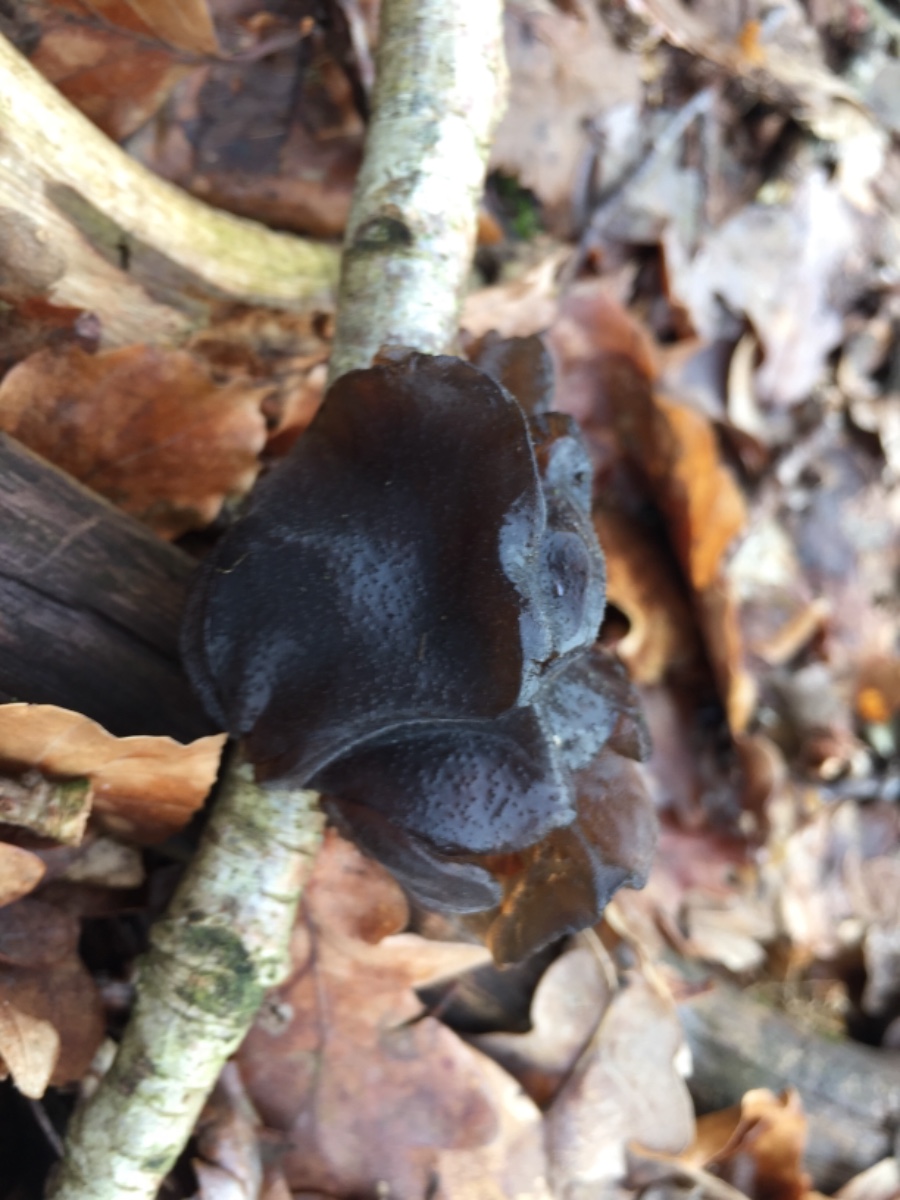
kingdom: Fungi
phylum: Basidiomycota
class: Agaricomycetes
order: Auriculariales
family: Auriculariaceae
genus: Exidia
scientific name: Exidia glandulosa
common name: ege-bævretop
